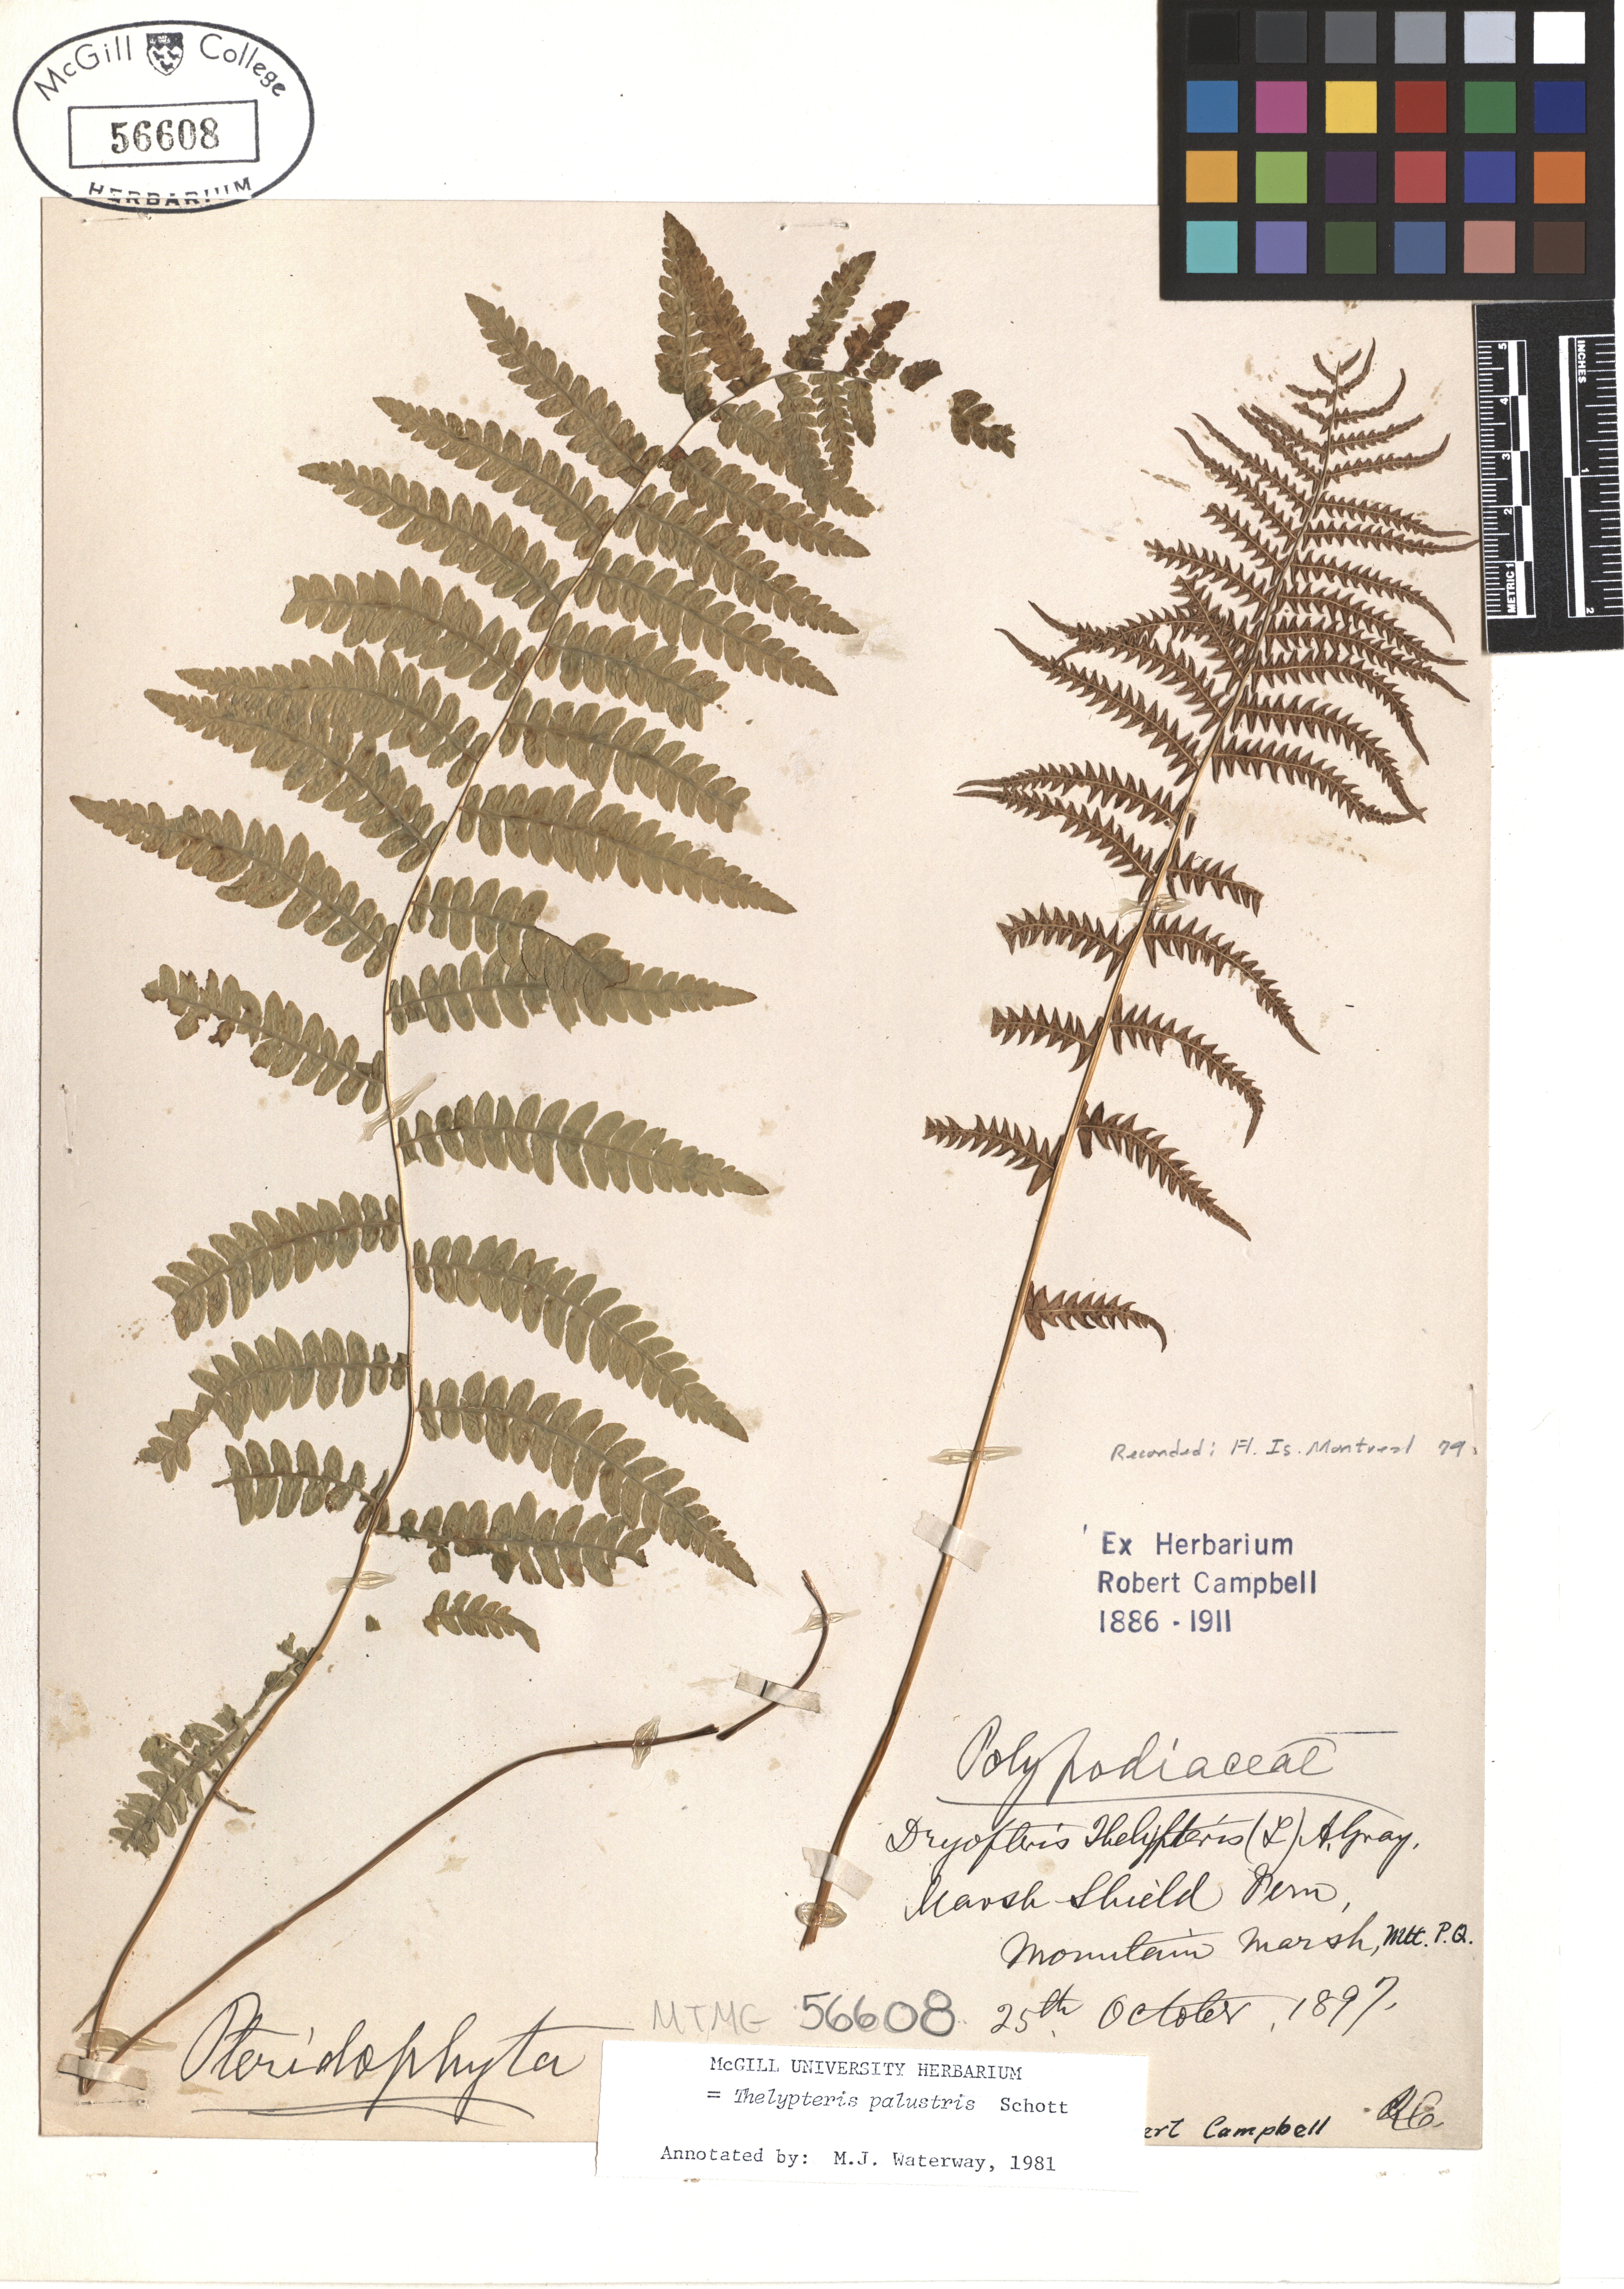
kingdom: Plantae
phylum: Tracheophyta
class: Polypodiopsida
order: Polypodiales
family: Thelypteridaceae
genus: Thelypteris
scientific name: Thelypteris palustris
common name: Marsh fern
